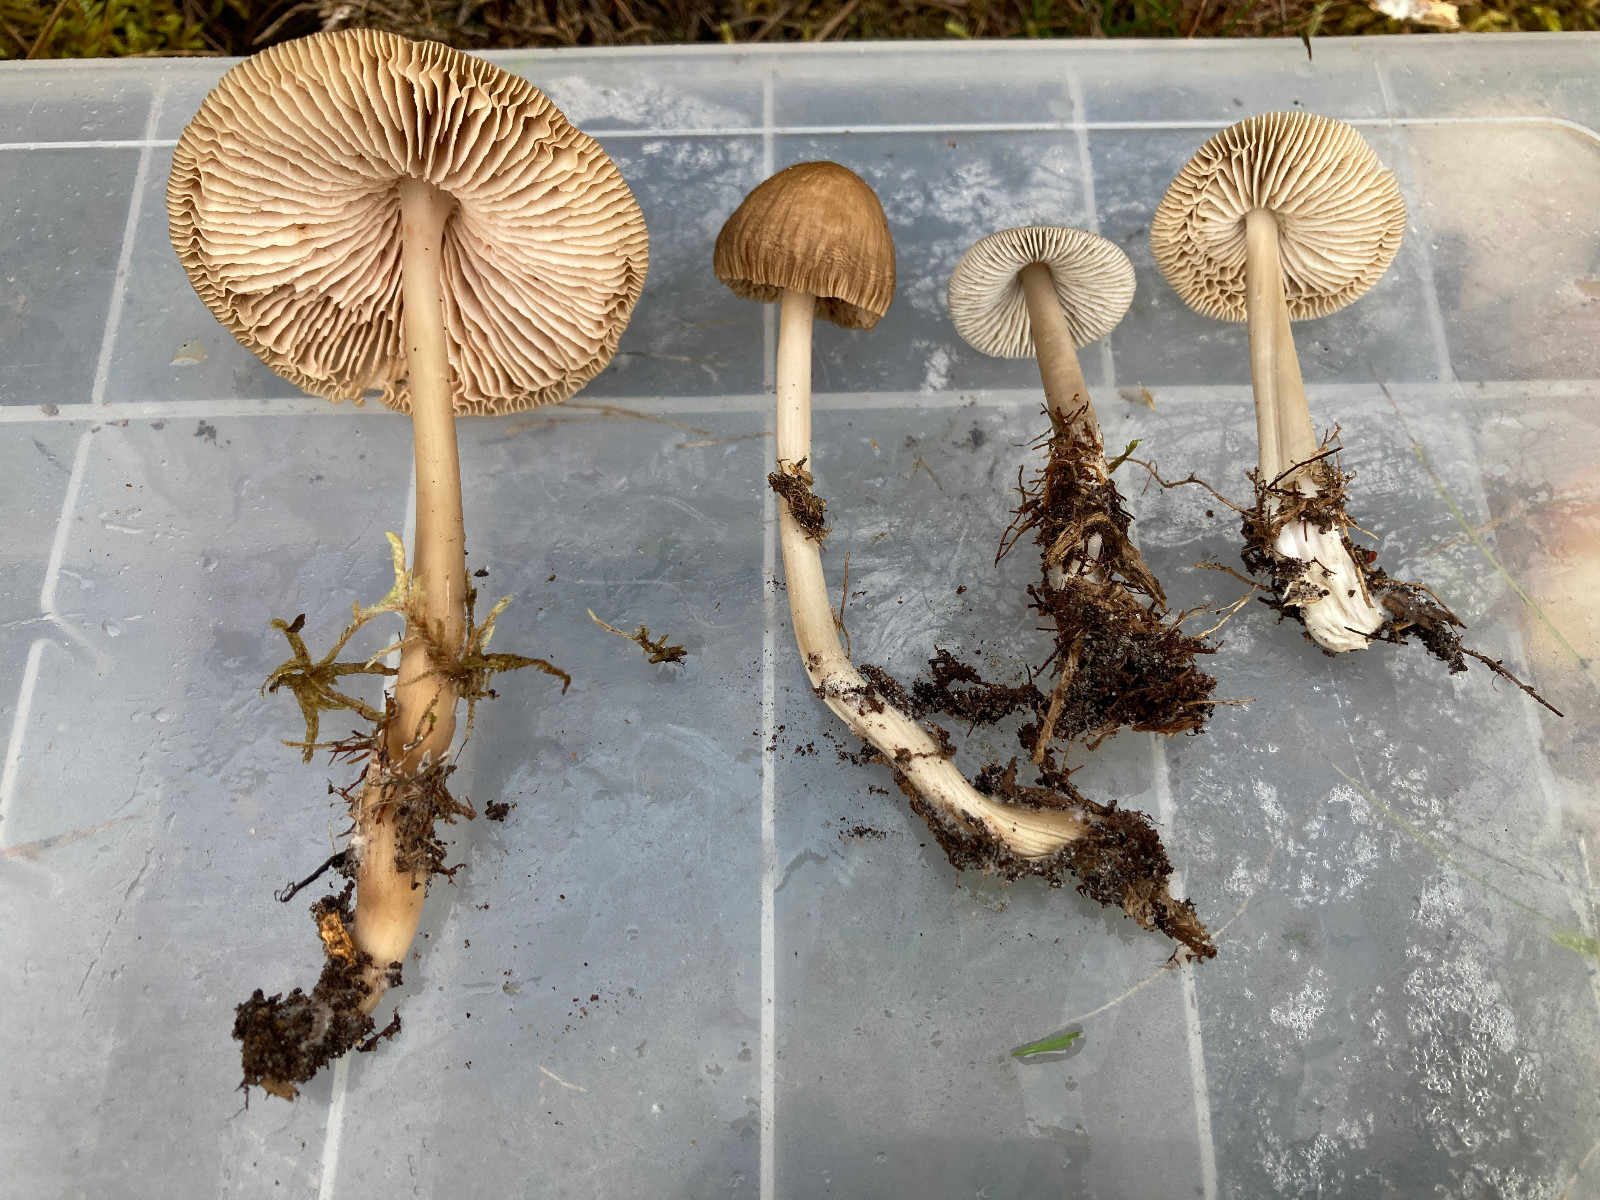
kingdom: Fungi
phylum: Basidiomycota
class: Agaricomycetes
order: Agaricales
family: Mycenaceae
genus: Mycena
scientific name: Mycena galericulata
